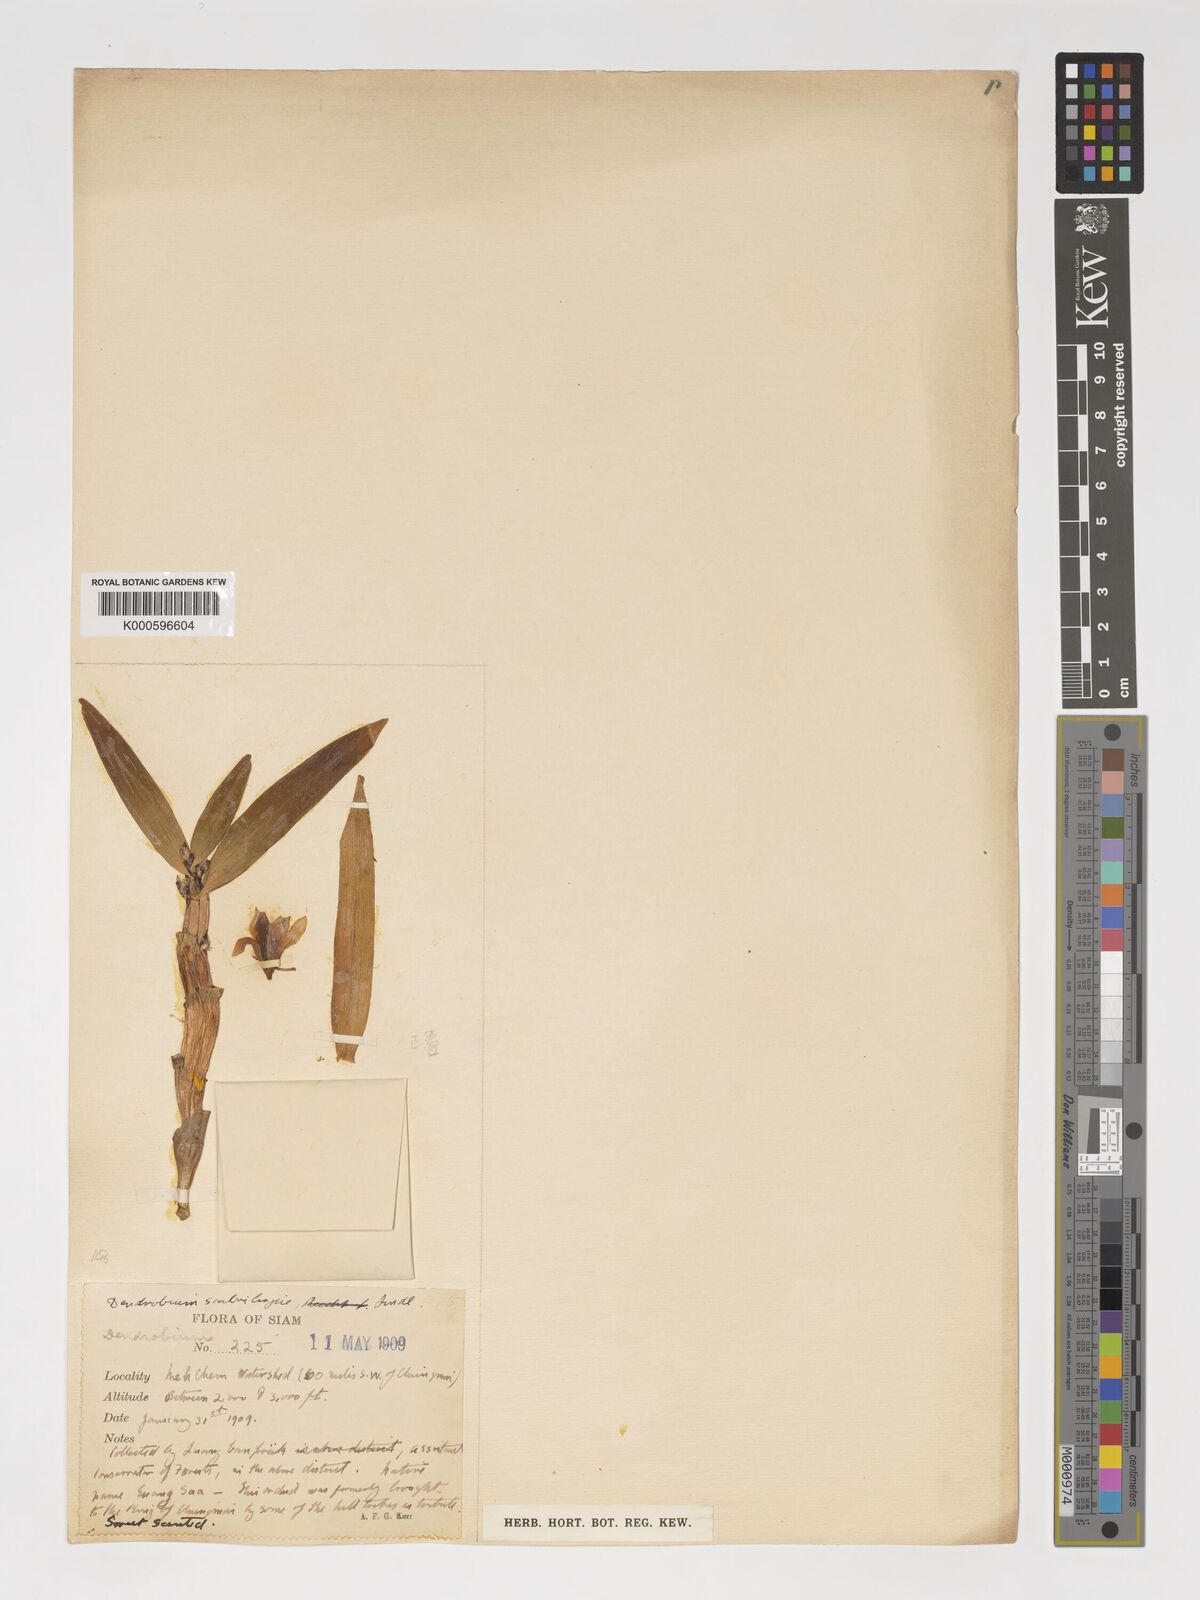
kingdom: Plantae
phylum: Tracheophyta
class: Liliopsida
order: Asparagales
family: Orchidaceae
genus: Dendrobium
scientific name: Dendrobium scabrilingue
